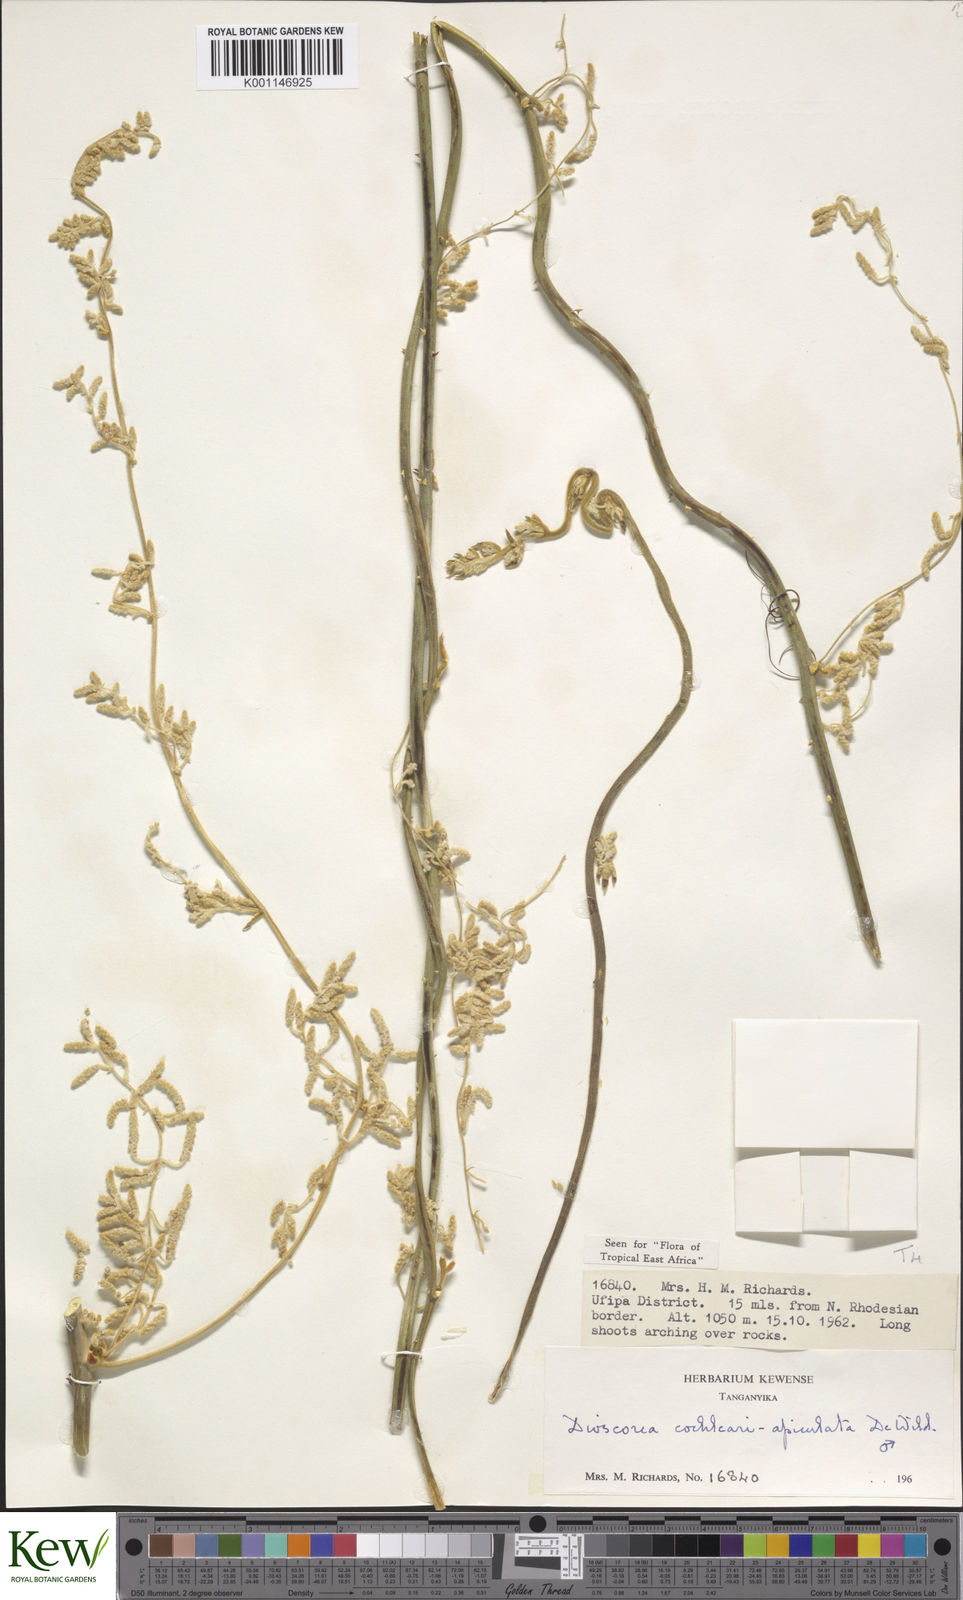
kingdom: Plantae
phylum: Tracheophyta
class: Liliopsida
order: Dioscoreales
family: Dioscoreaceae
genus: Dioscorea
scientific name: Dioscorea cochleariapiculata
